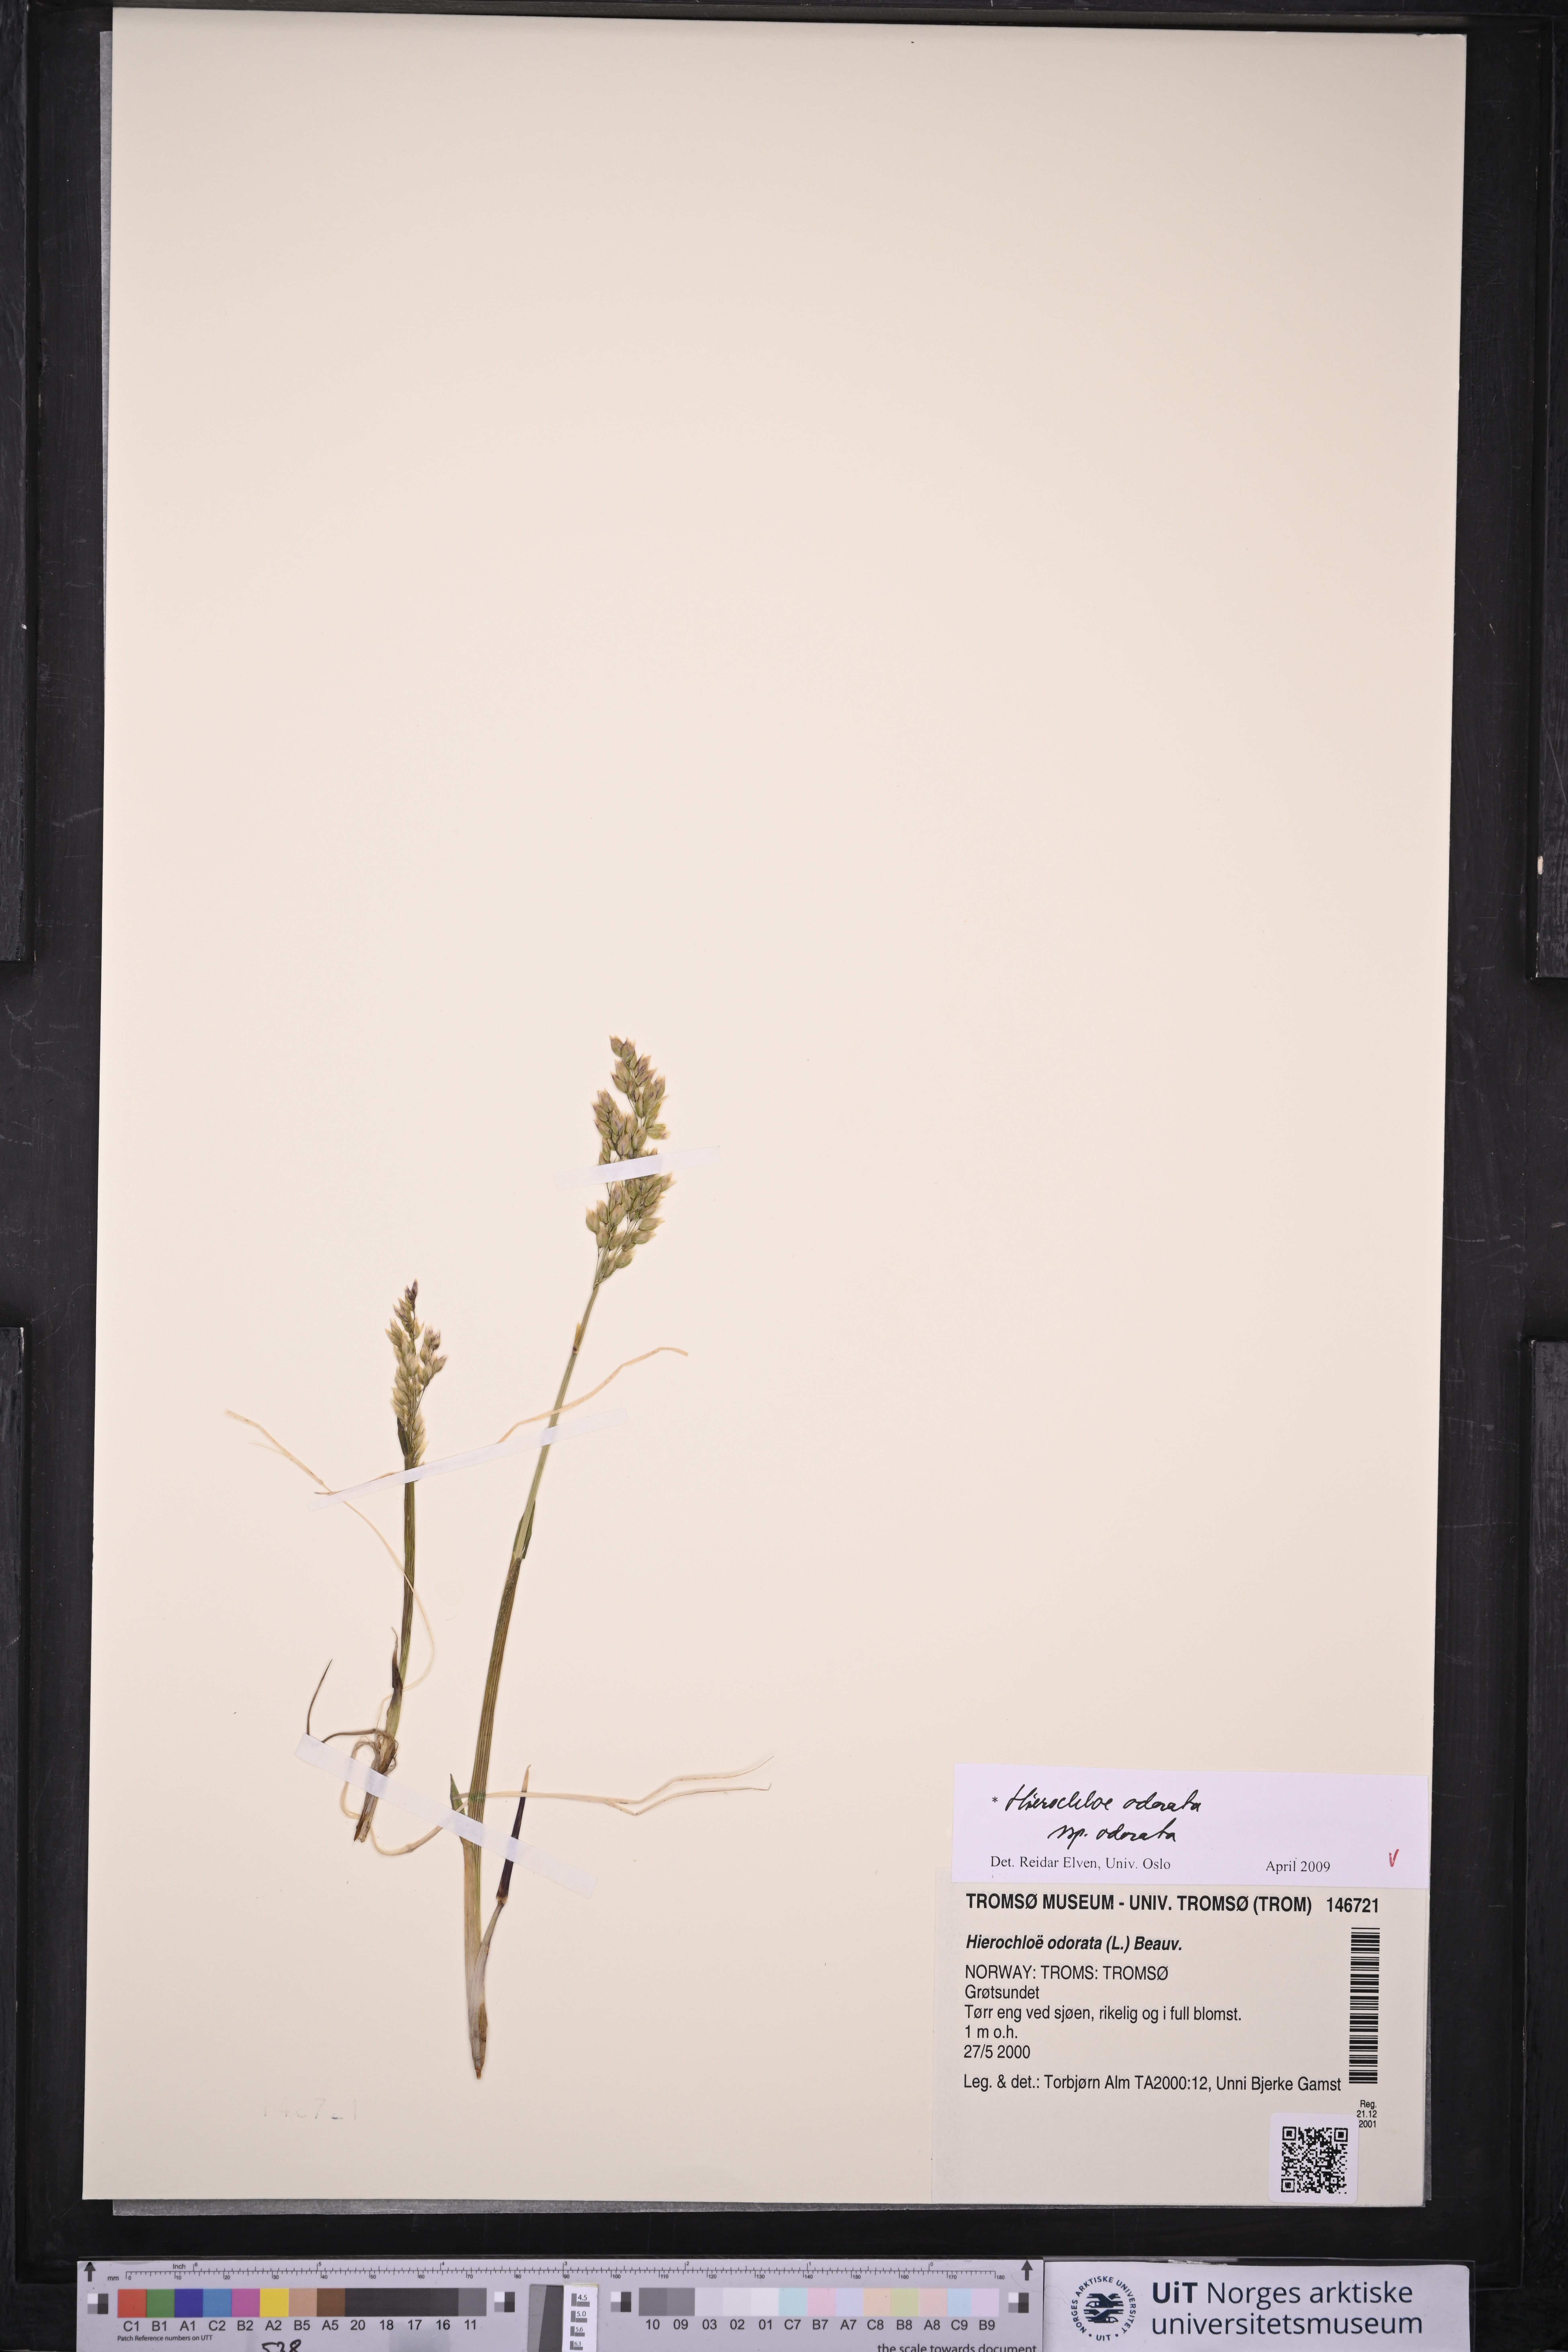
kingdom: Plantae
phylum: Tracheophyta
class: Liliopsida
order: Poales
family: Poaceae
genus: Anthoxanthum
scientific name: Anthoxanthum nitens
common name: Holy grass
